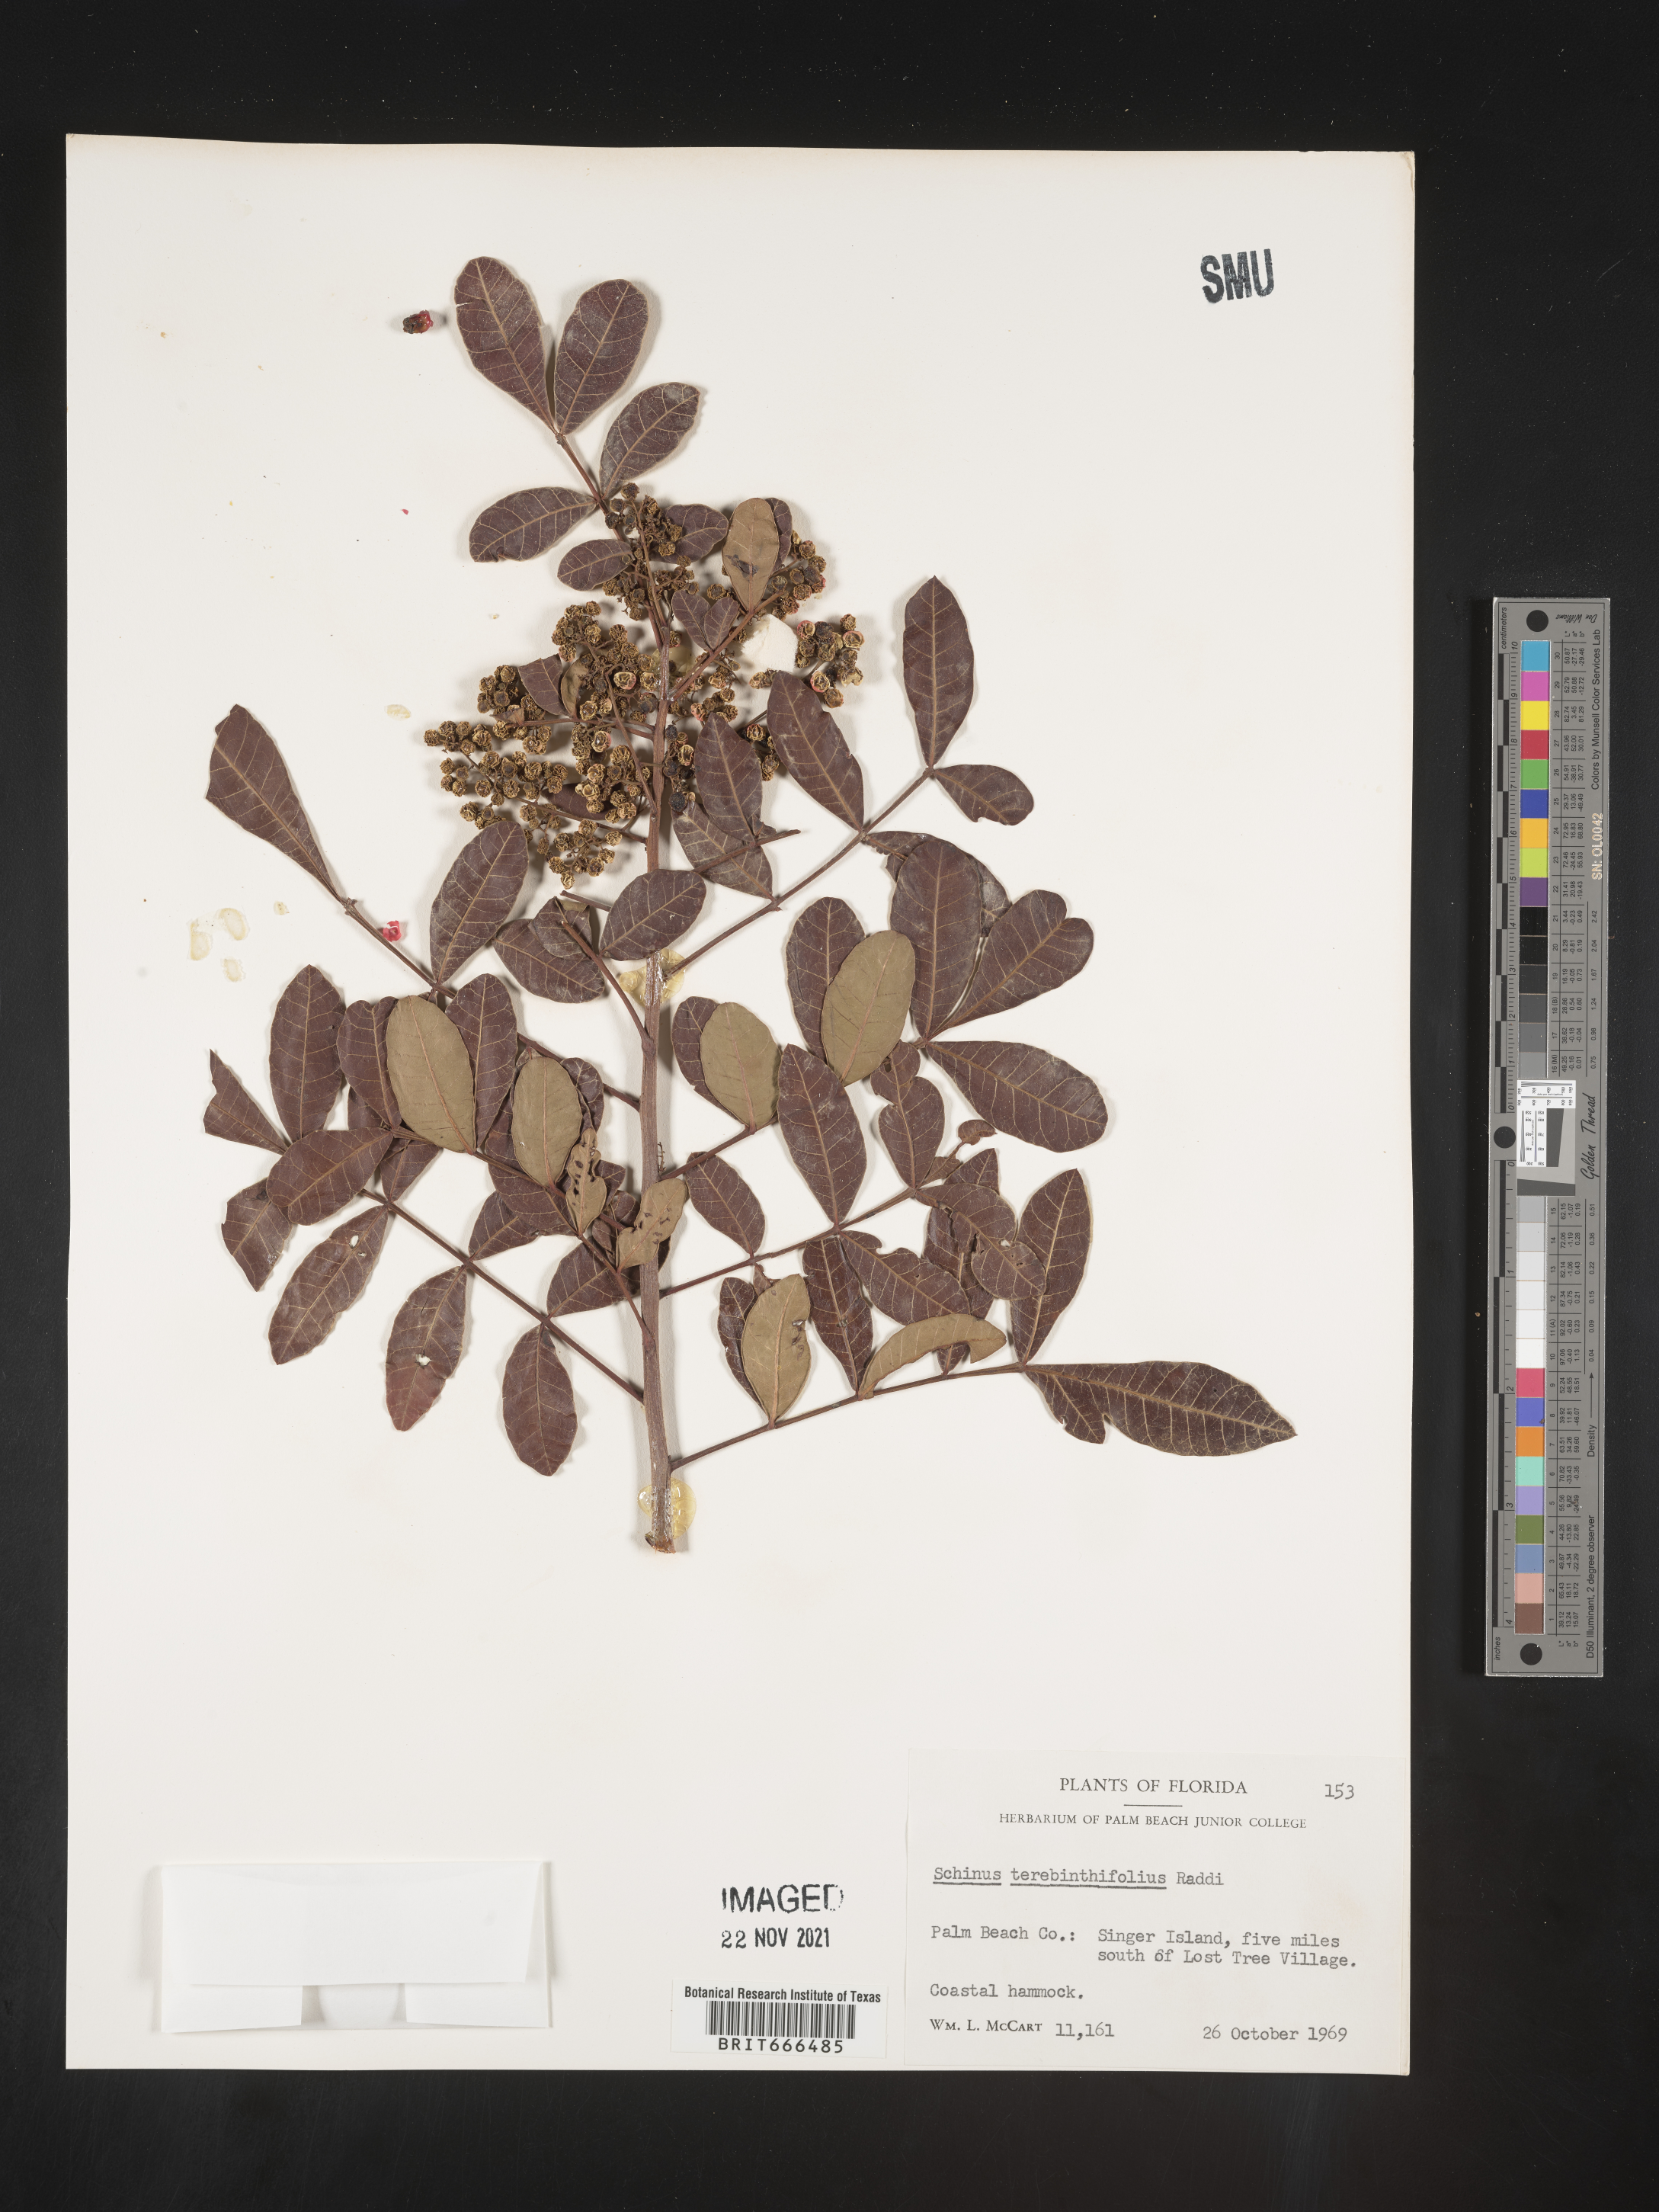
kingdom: Plantae
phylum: Tracheophyta
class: Magnoliopsida
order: Sapindales
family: Anacardiaceae
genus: Schinus
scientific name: Schinus
